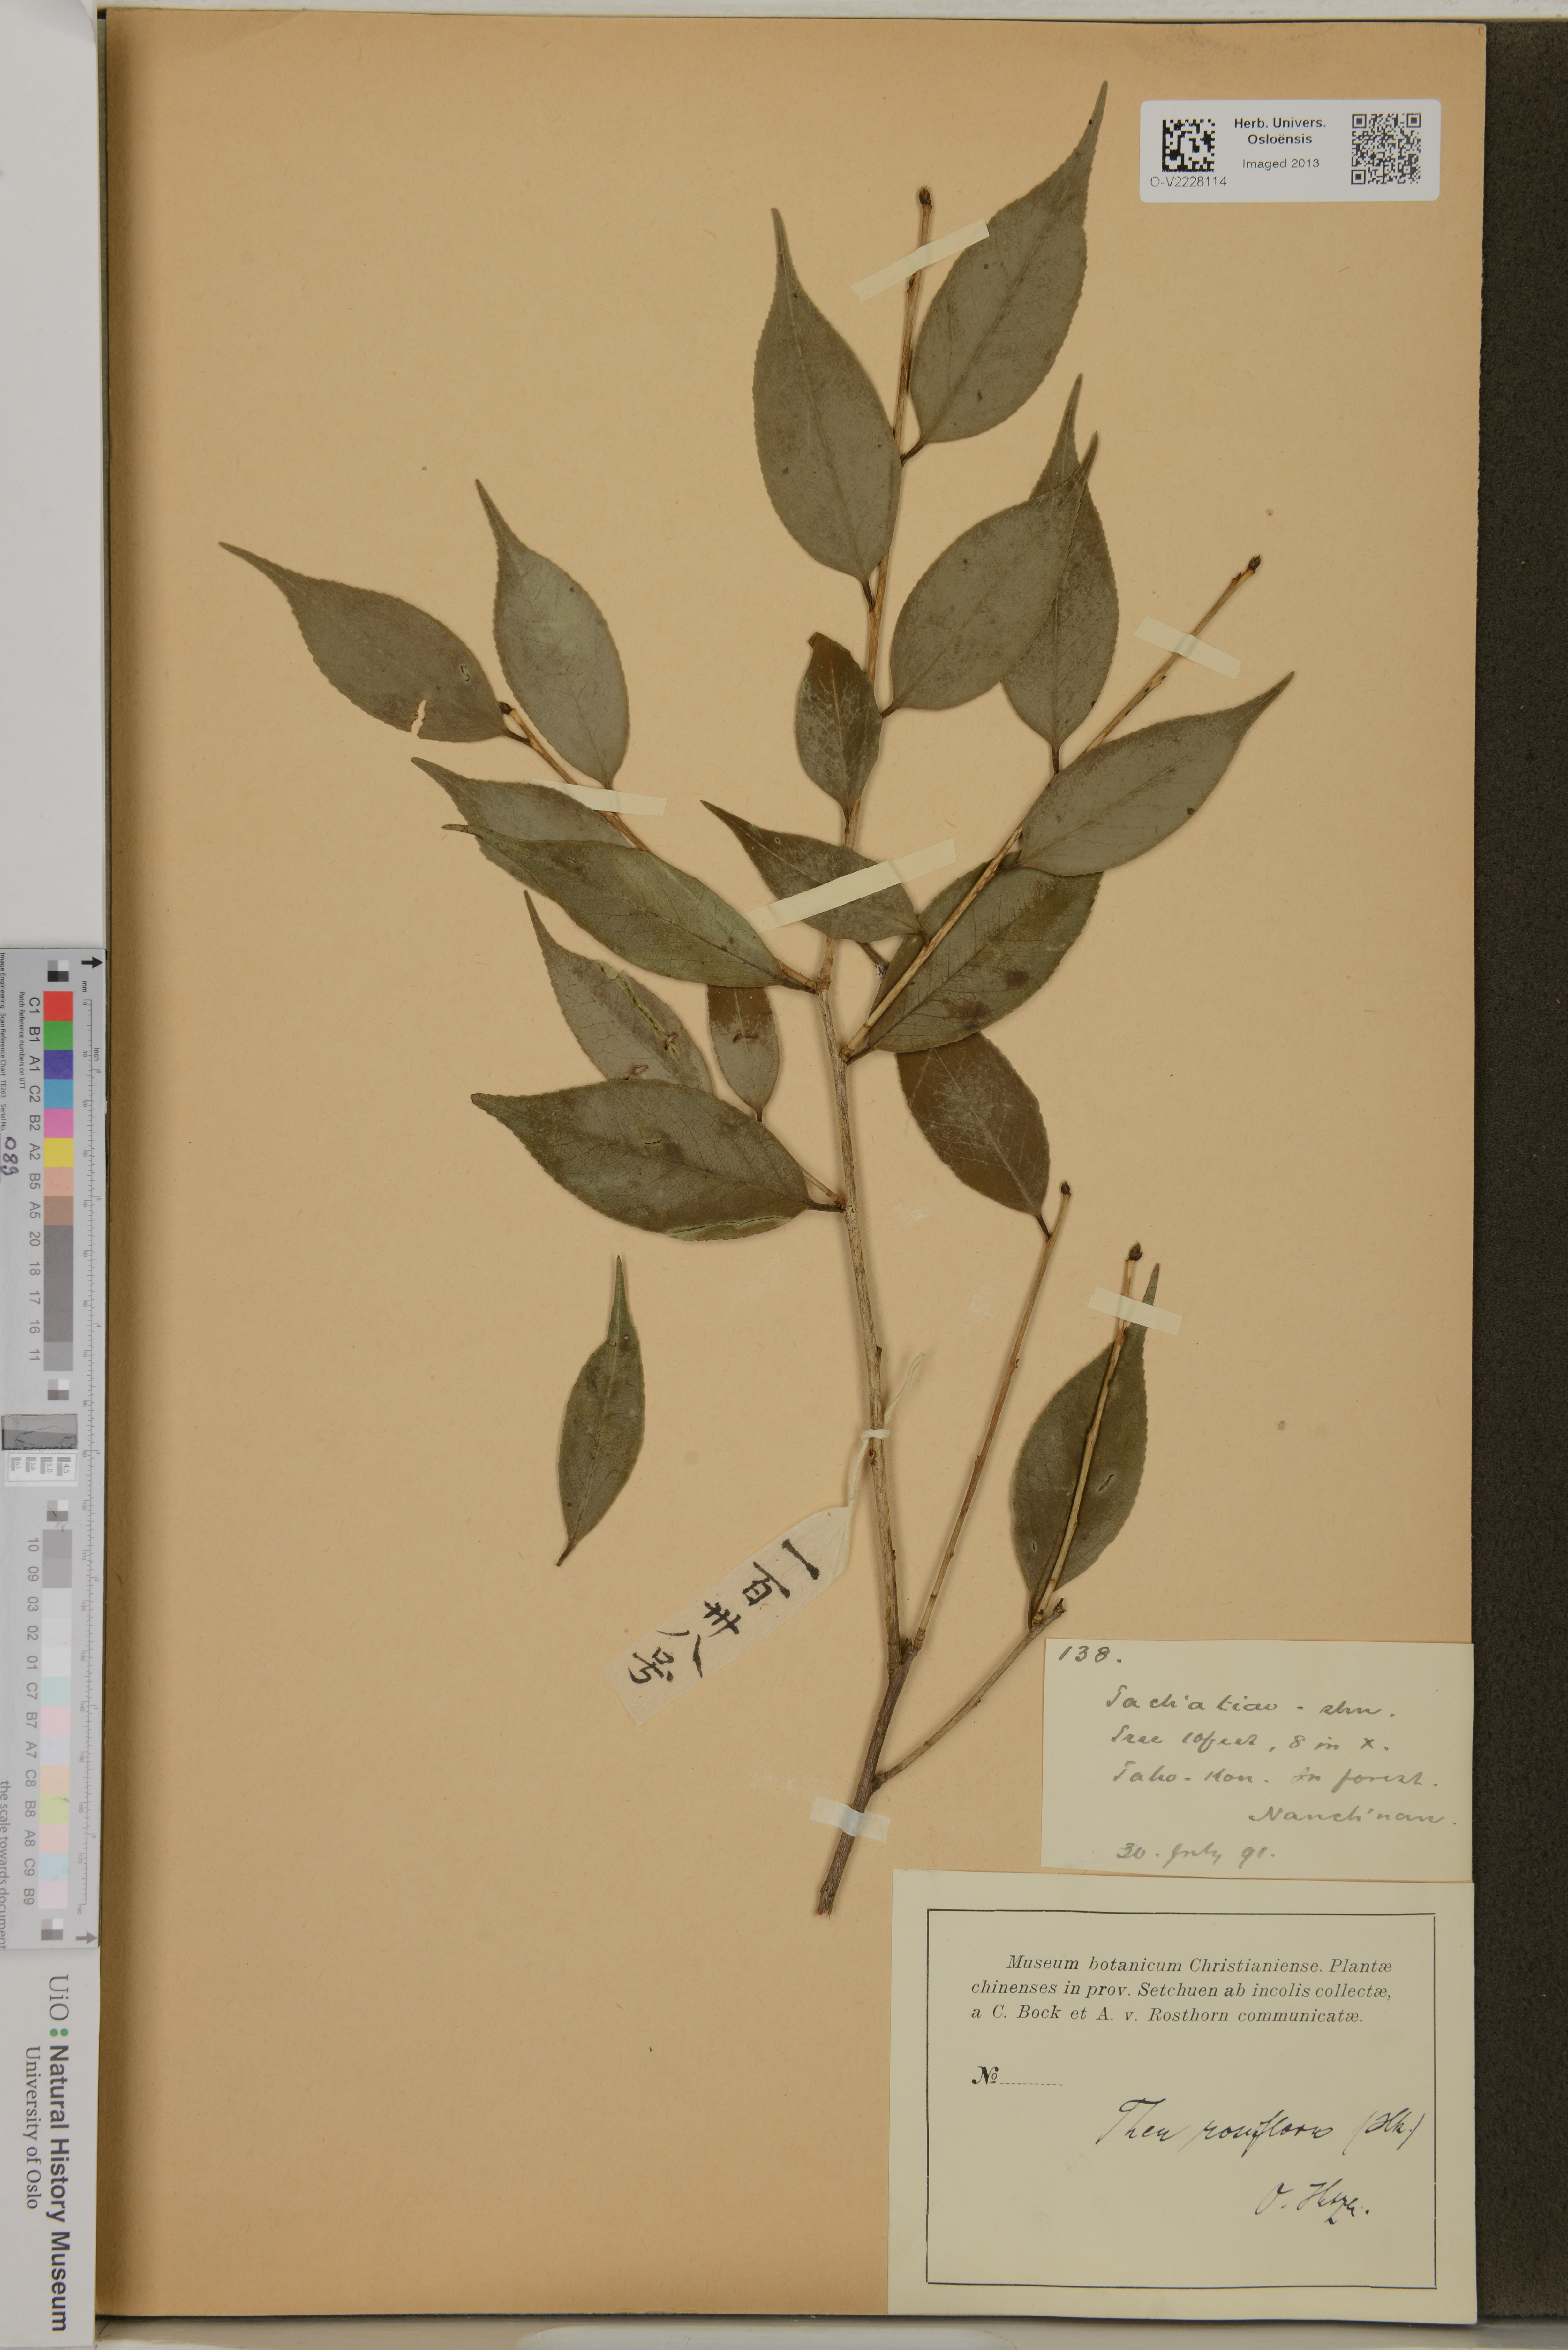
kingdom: Plantae
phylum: Tracheophyta
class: Magnoliopsida
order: Ericales
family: Theaceae
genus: Camellia
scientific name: Camellia rosiflora
